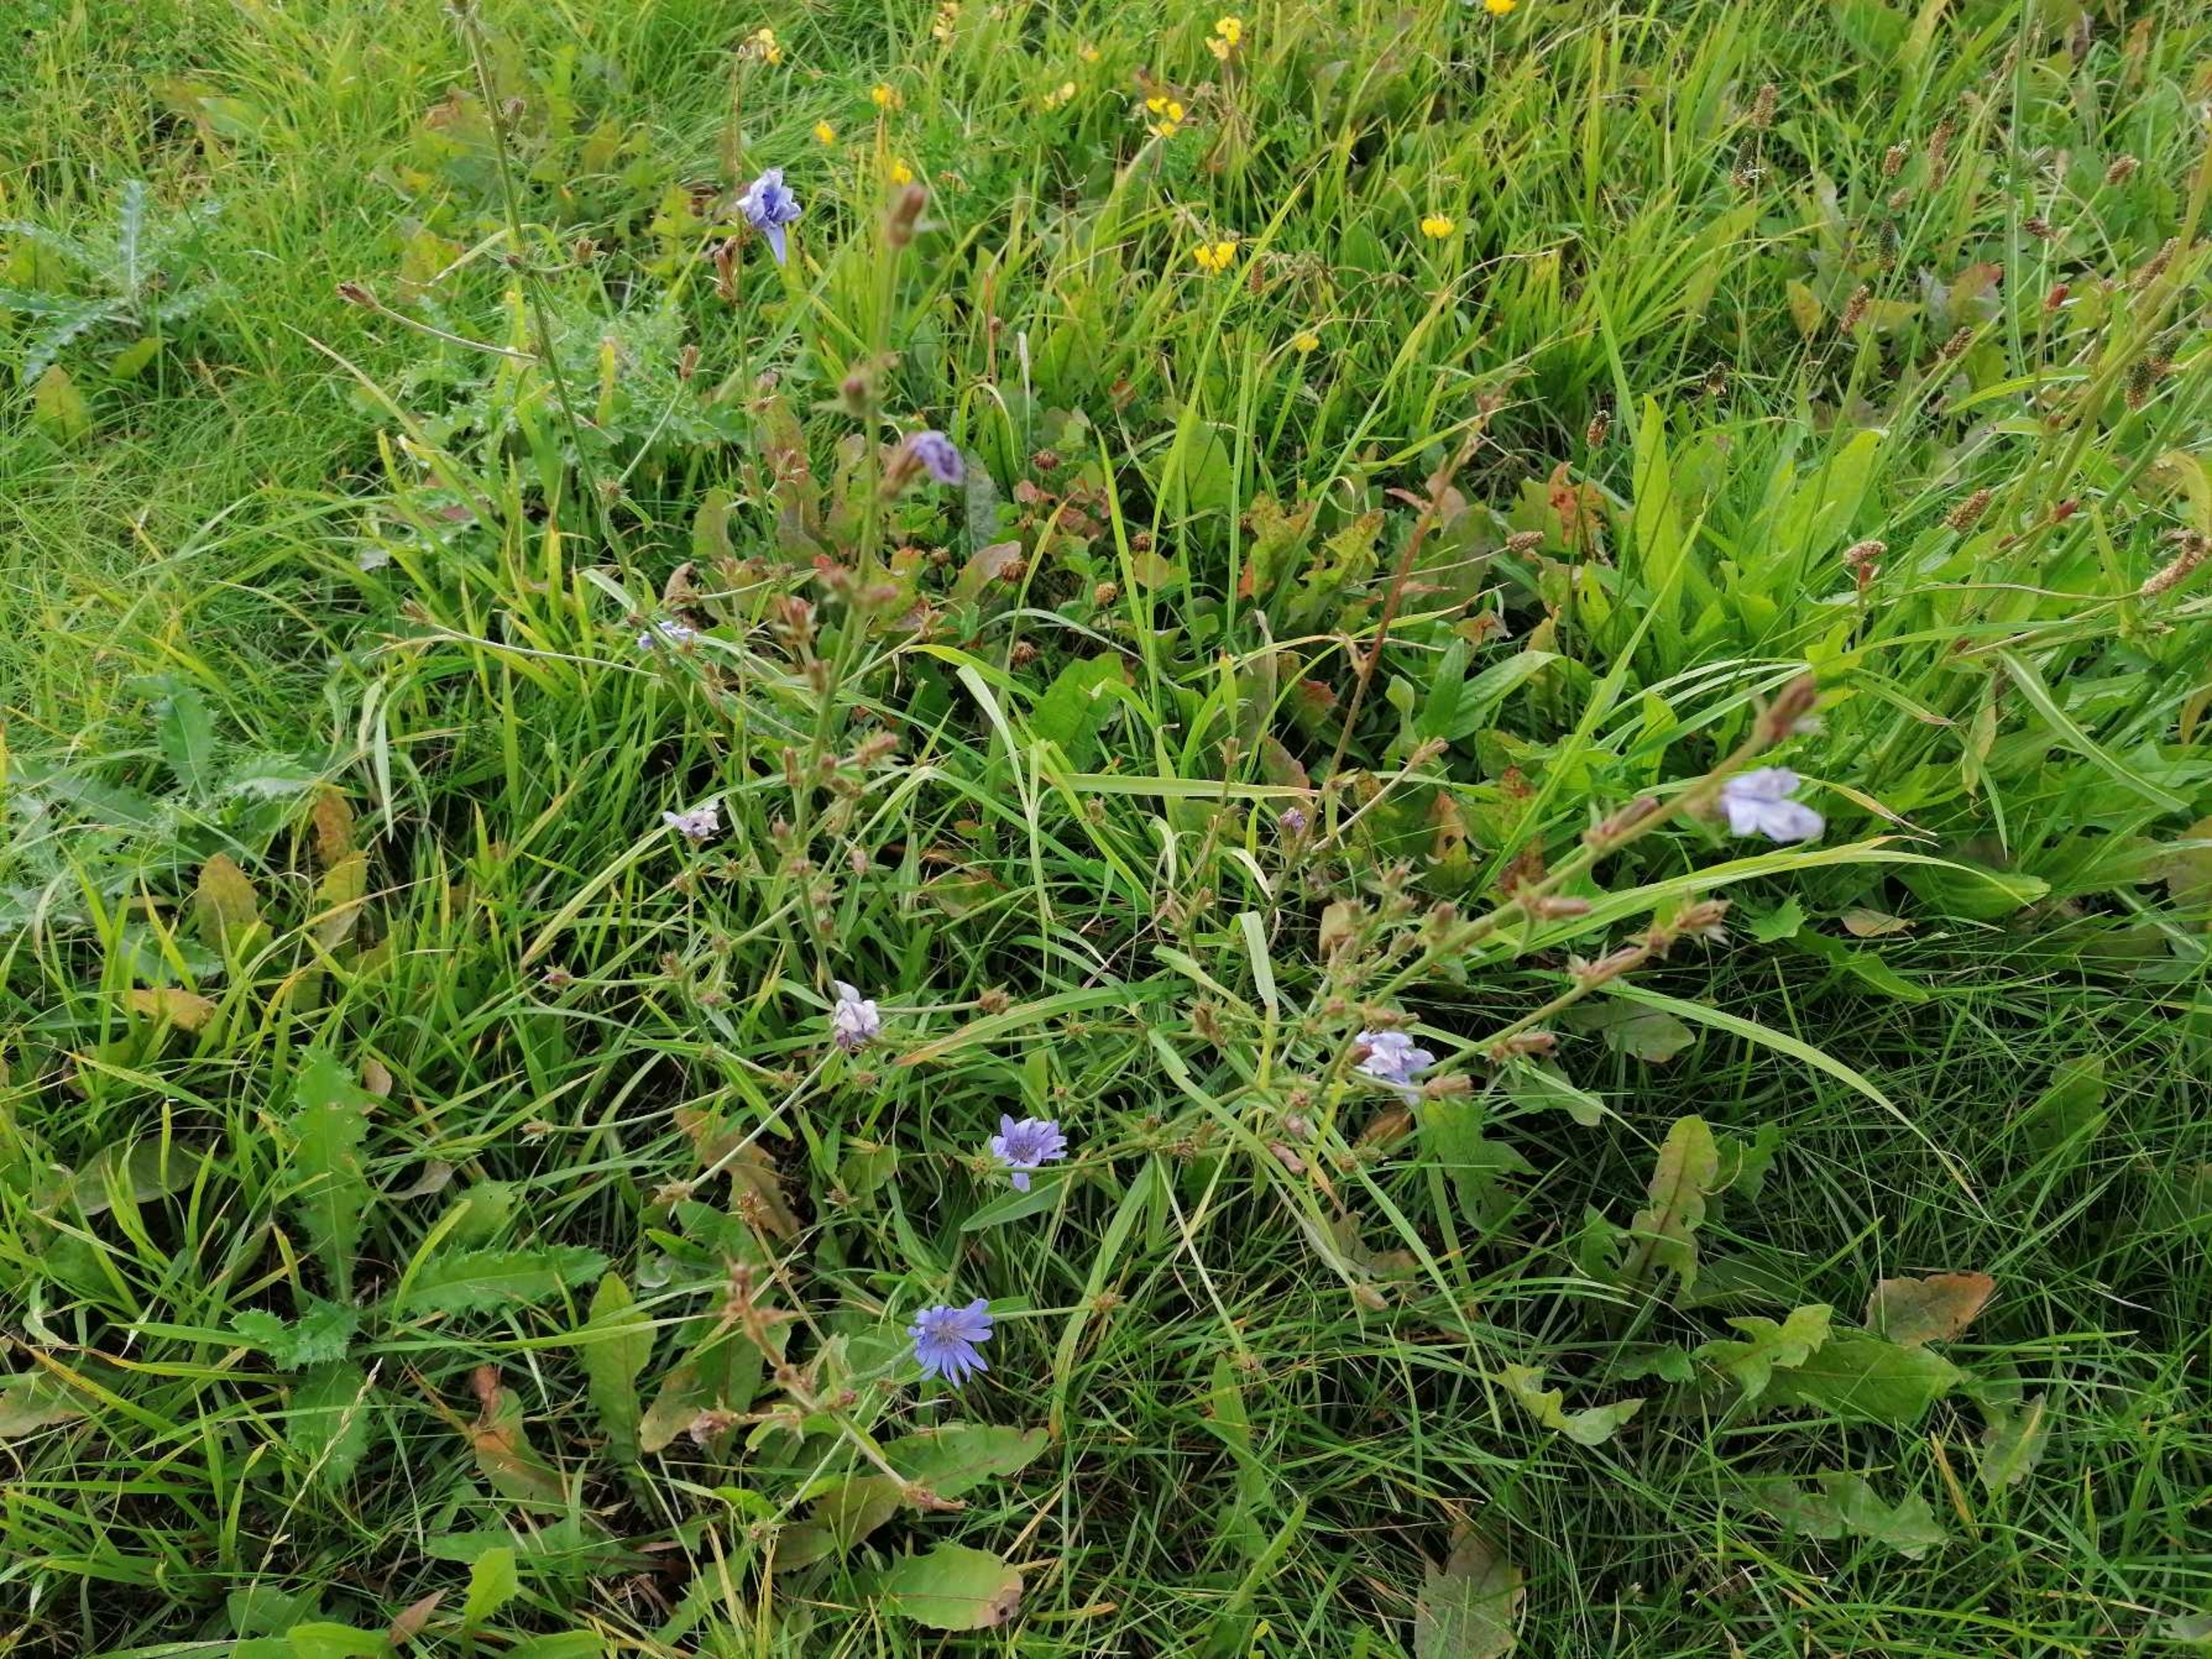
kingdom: Plantae
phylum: Tracheophyta
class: Magnoliopsida
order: Asterales
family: Asteraceae
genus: Cichorium
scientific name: Cichorium intybus
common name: Cikorie
